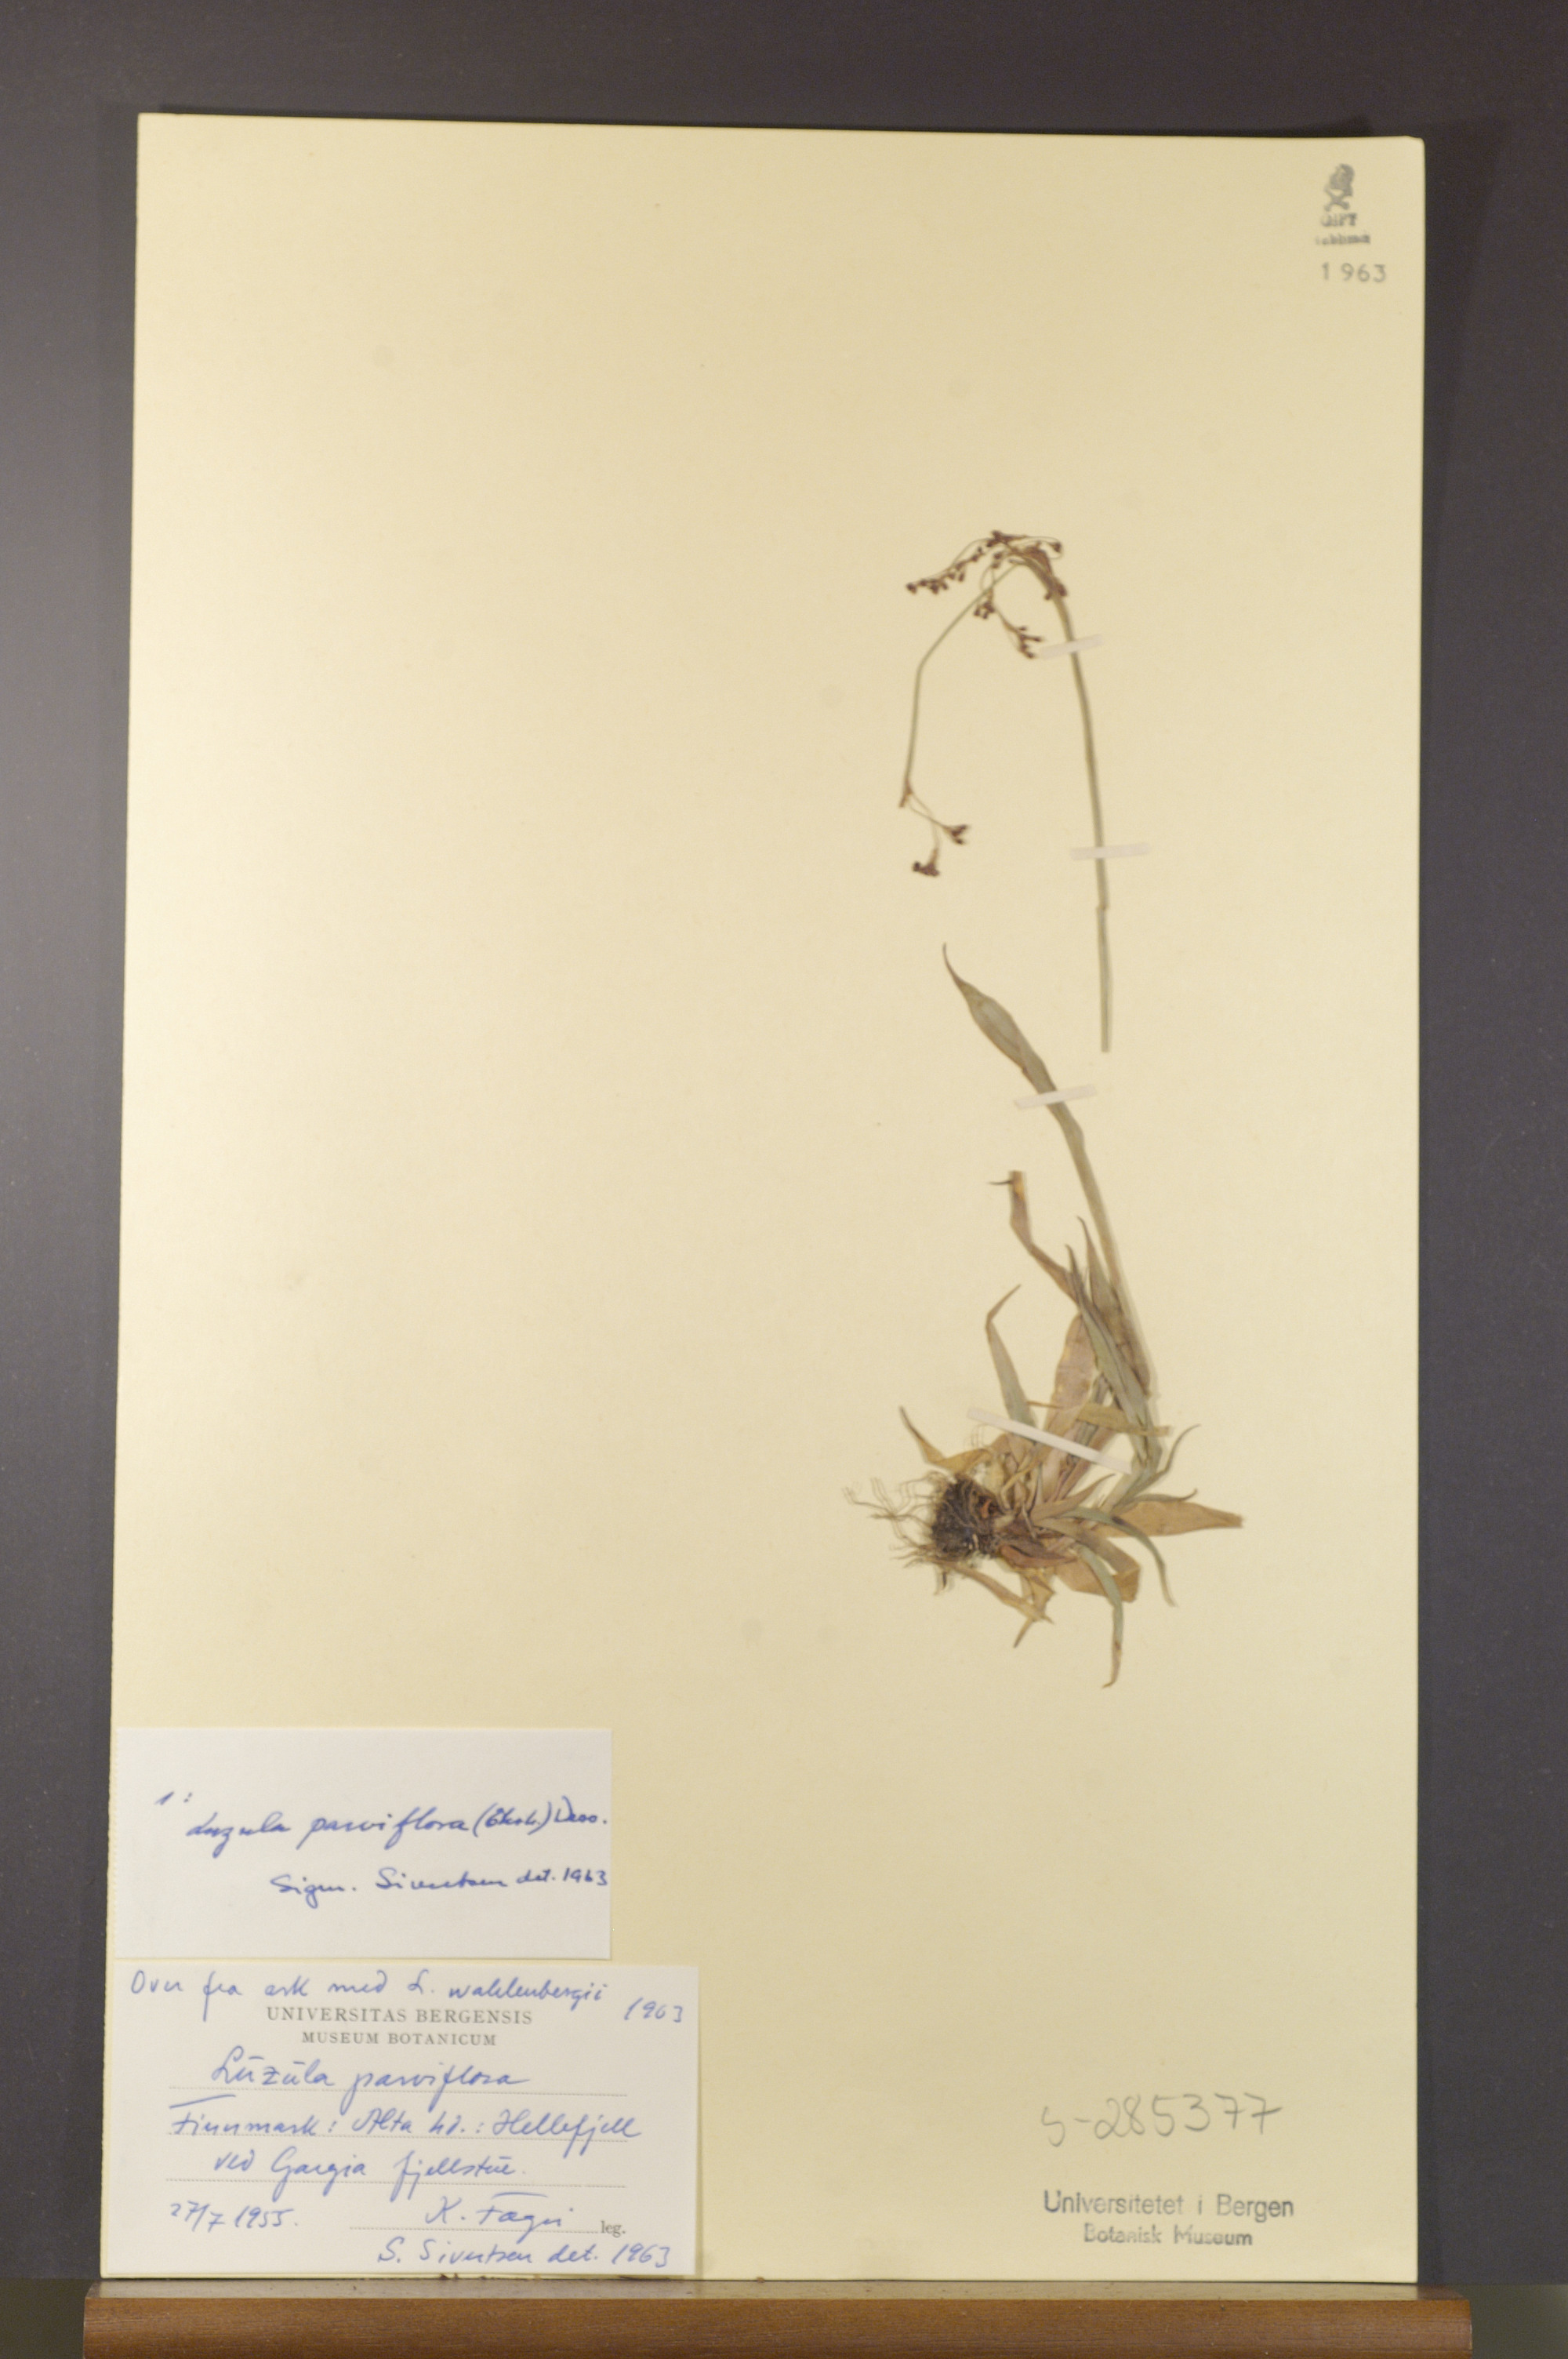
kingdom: Plantae
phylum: Tracheophyta
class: Liliopsida
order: Poales
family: Juncaceae
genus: Luzula
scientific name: Luzula parviflora
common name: Millet woodrush
